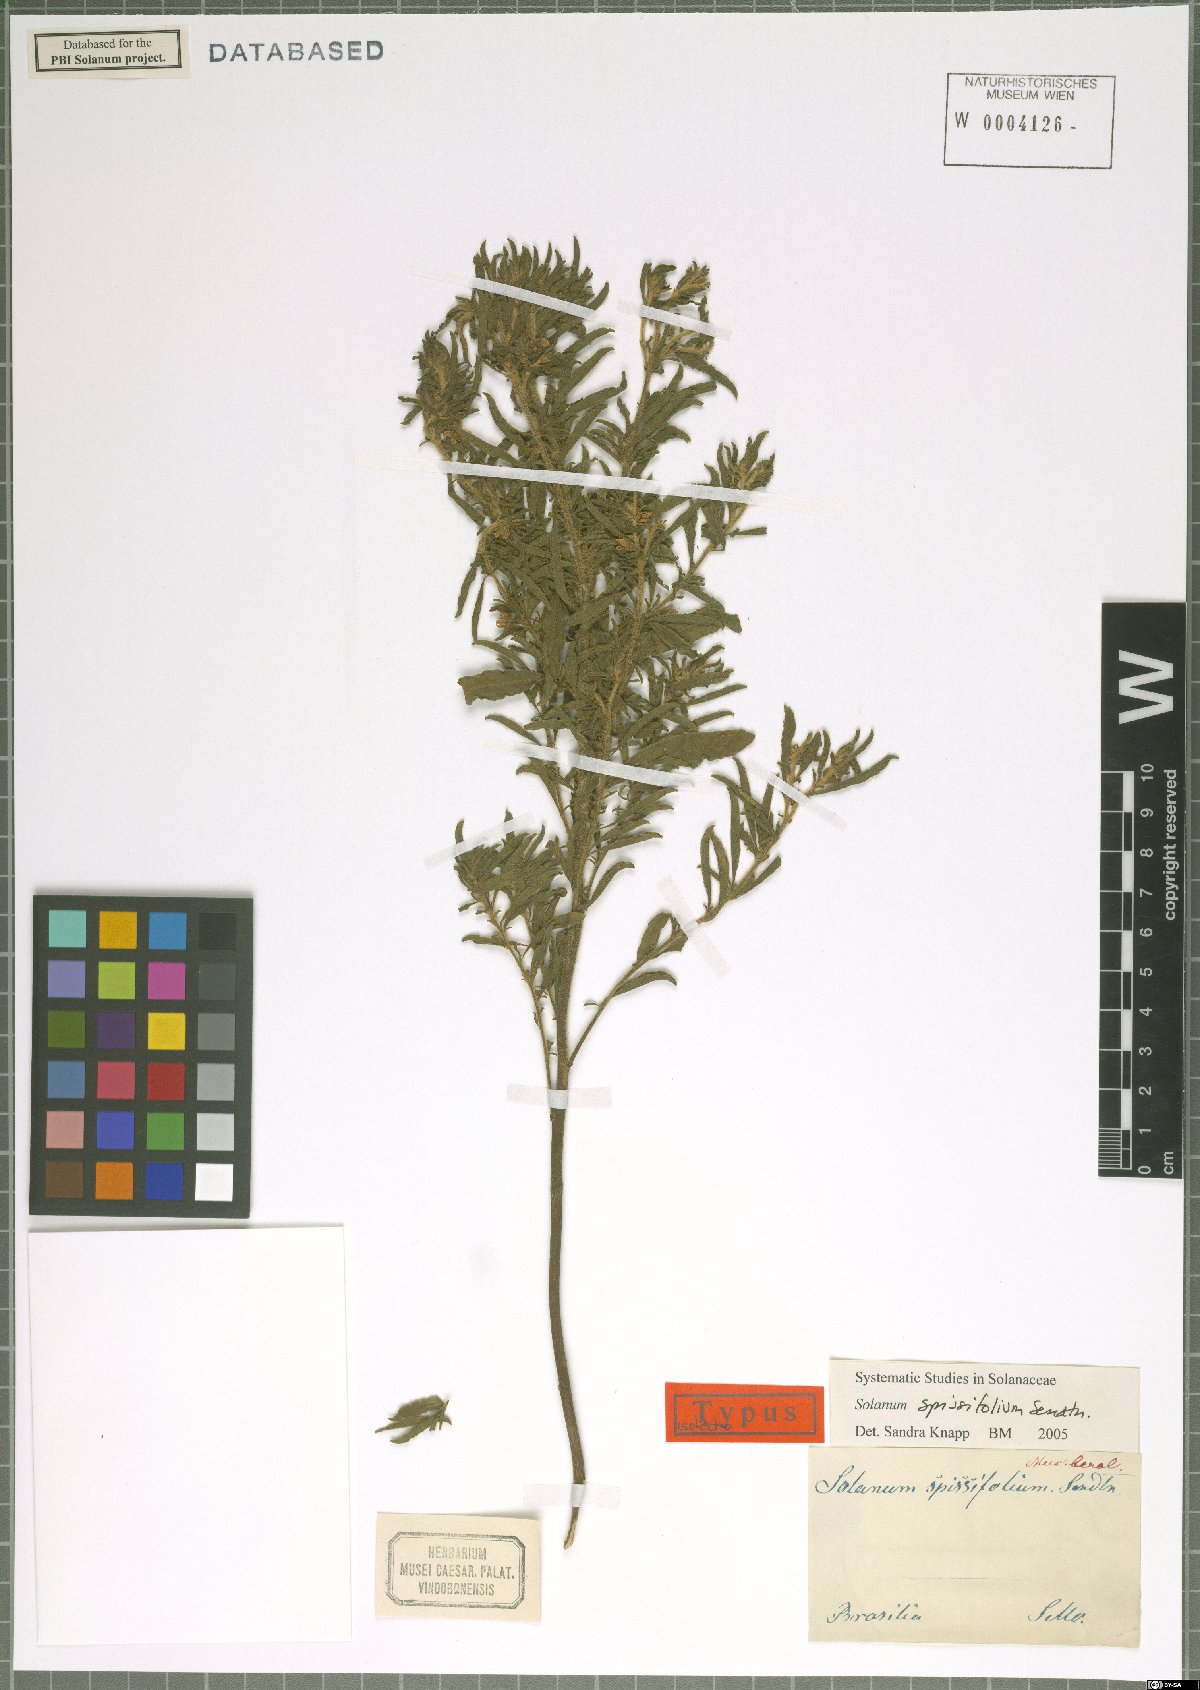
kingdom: Plantae
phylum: Tracheophyta
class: Magnoliopsida
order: Solanales
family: Solanaceae
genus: Solanum
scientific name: Solanum spissifolium
